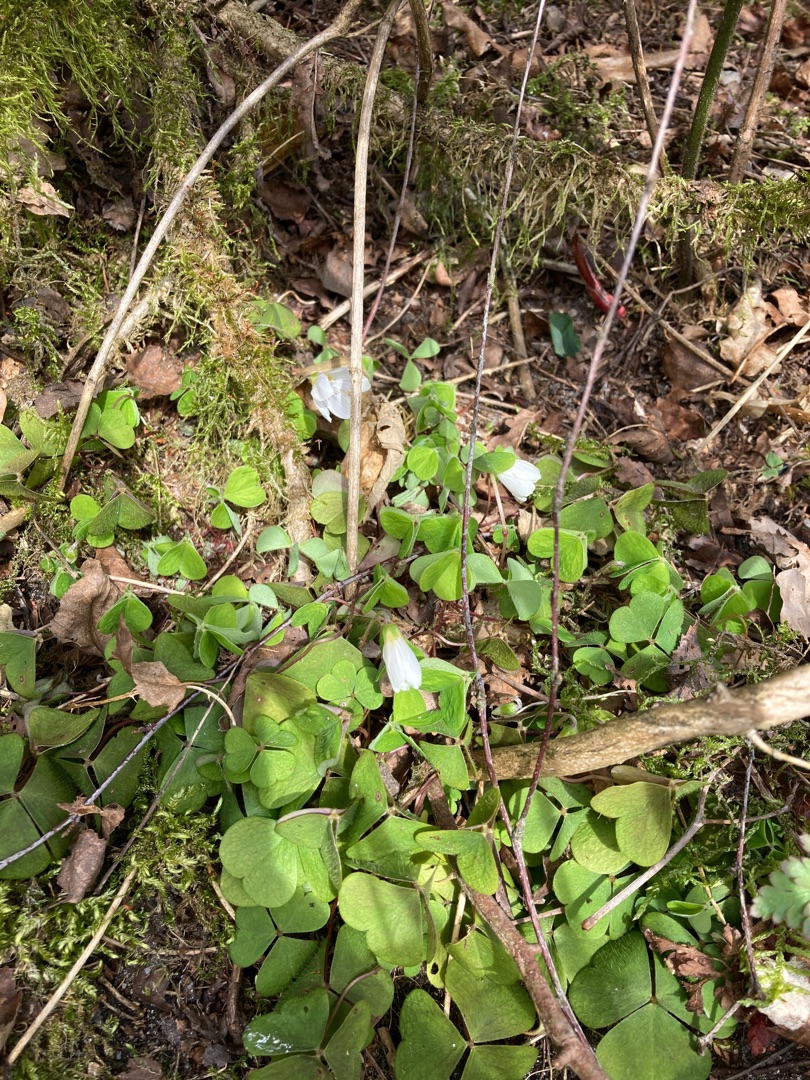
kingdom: Plantae
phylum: Tracheophyta
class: Magnoliopsida
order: Oxalidales
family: Oxalidaceae
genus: Oxalis
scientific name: Oxalis acetosella
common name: Skovsyre
